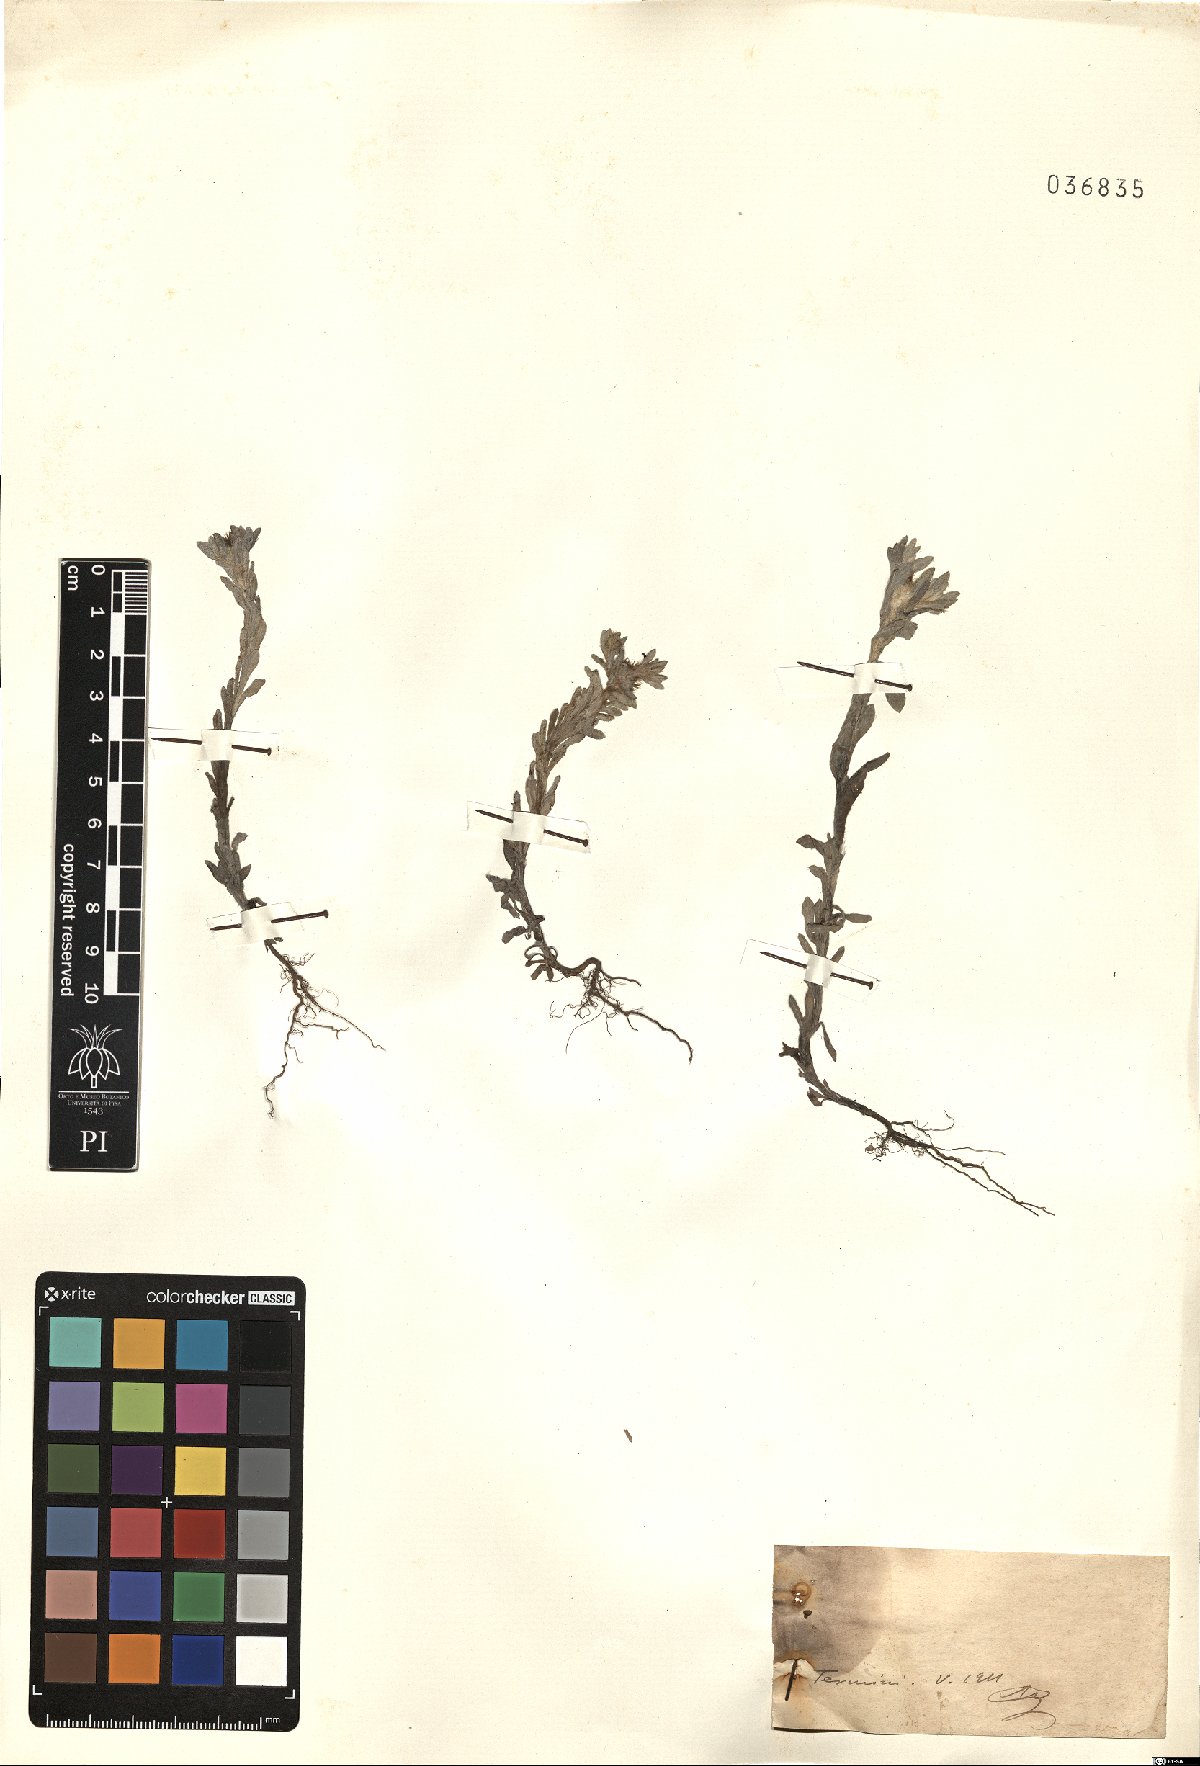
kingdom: Plantae
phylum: Tracheophyta
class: Magnoliopsida
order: Asterales
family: Asteraceae
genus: Filago
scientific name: Filago
